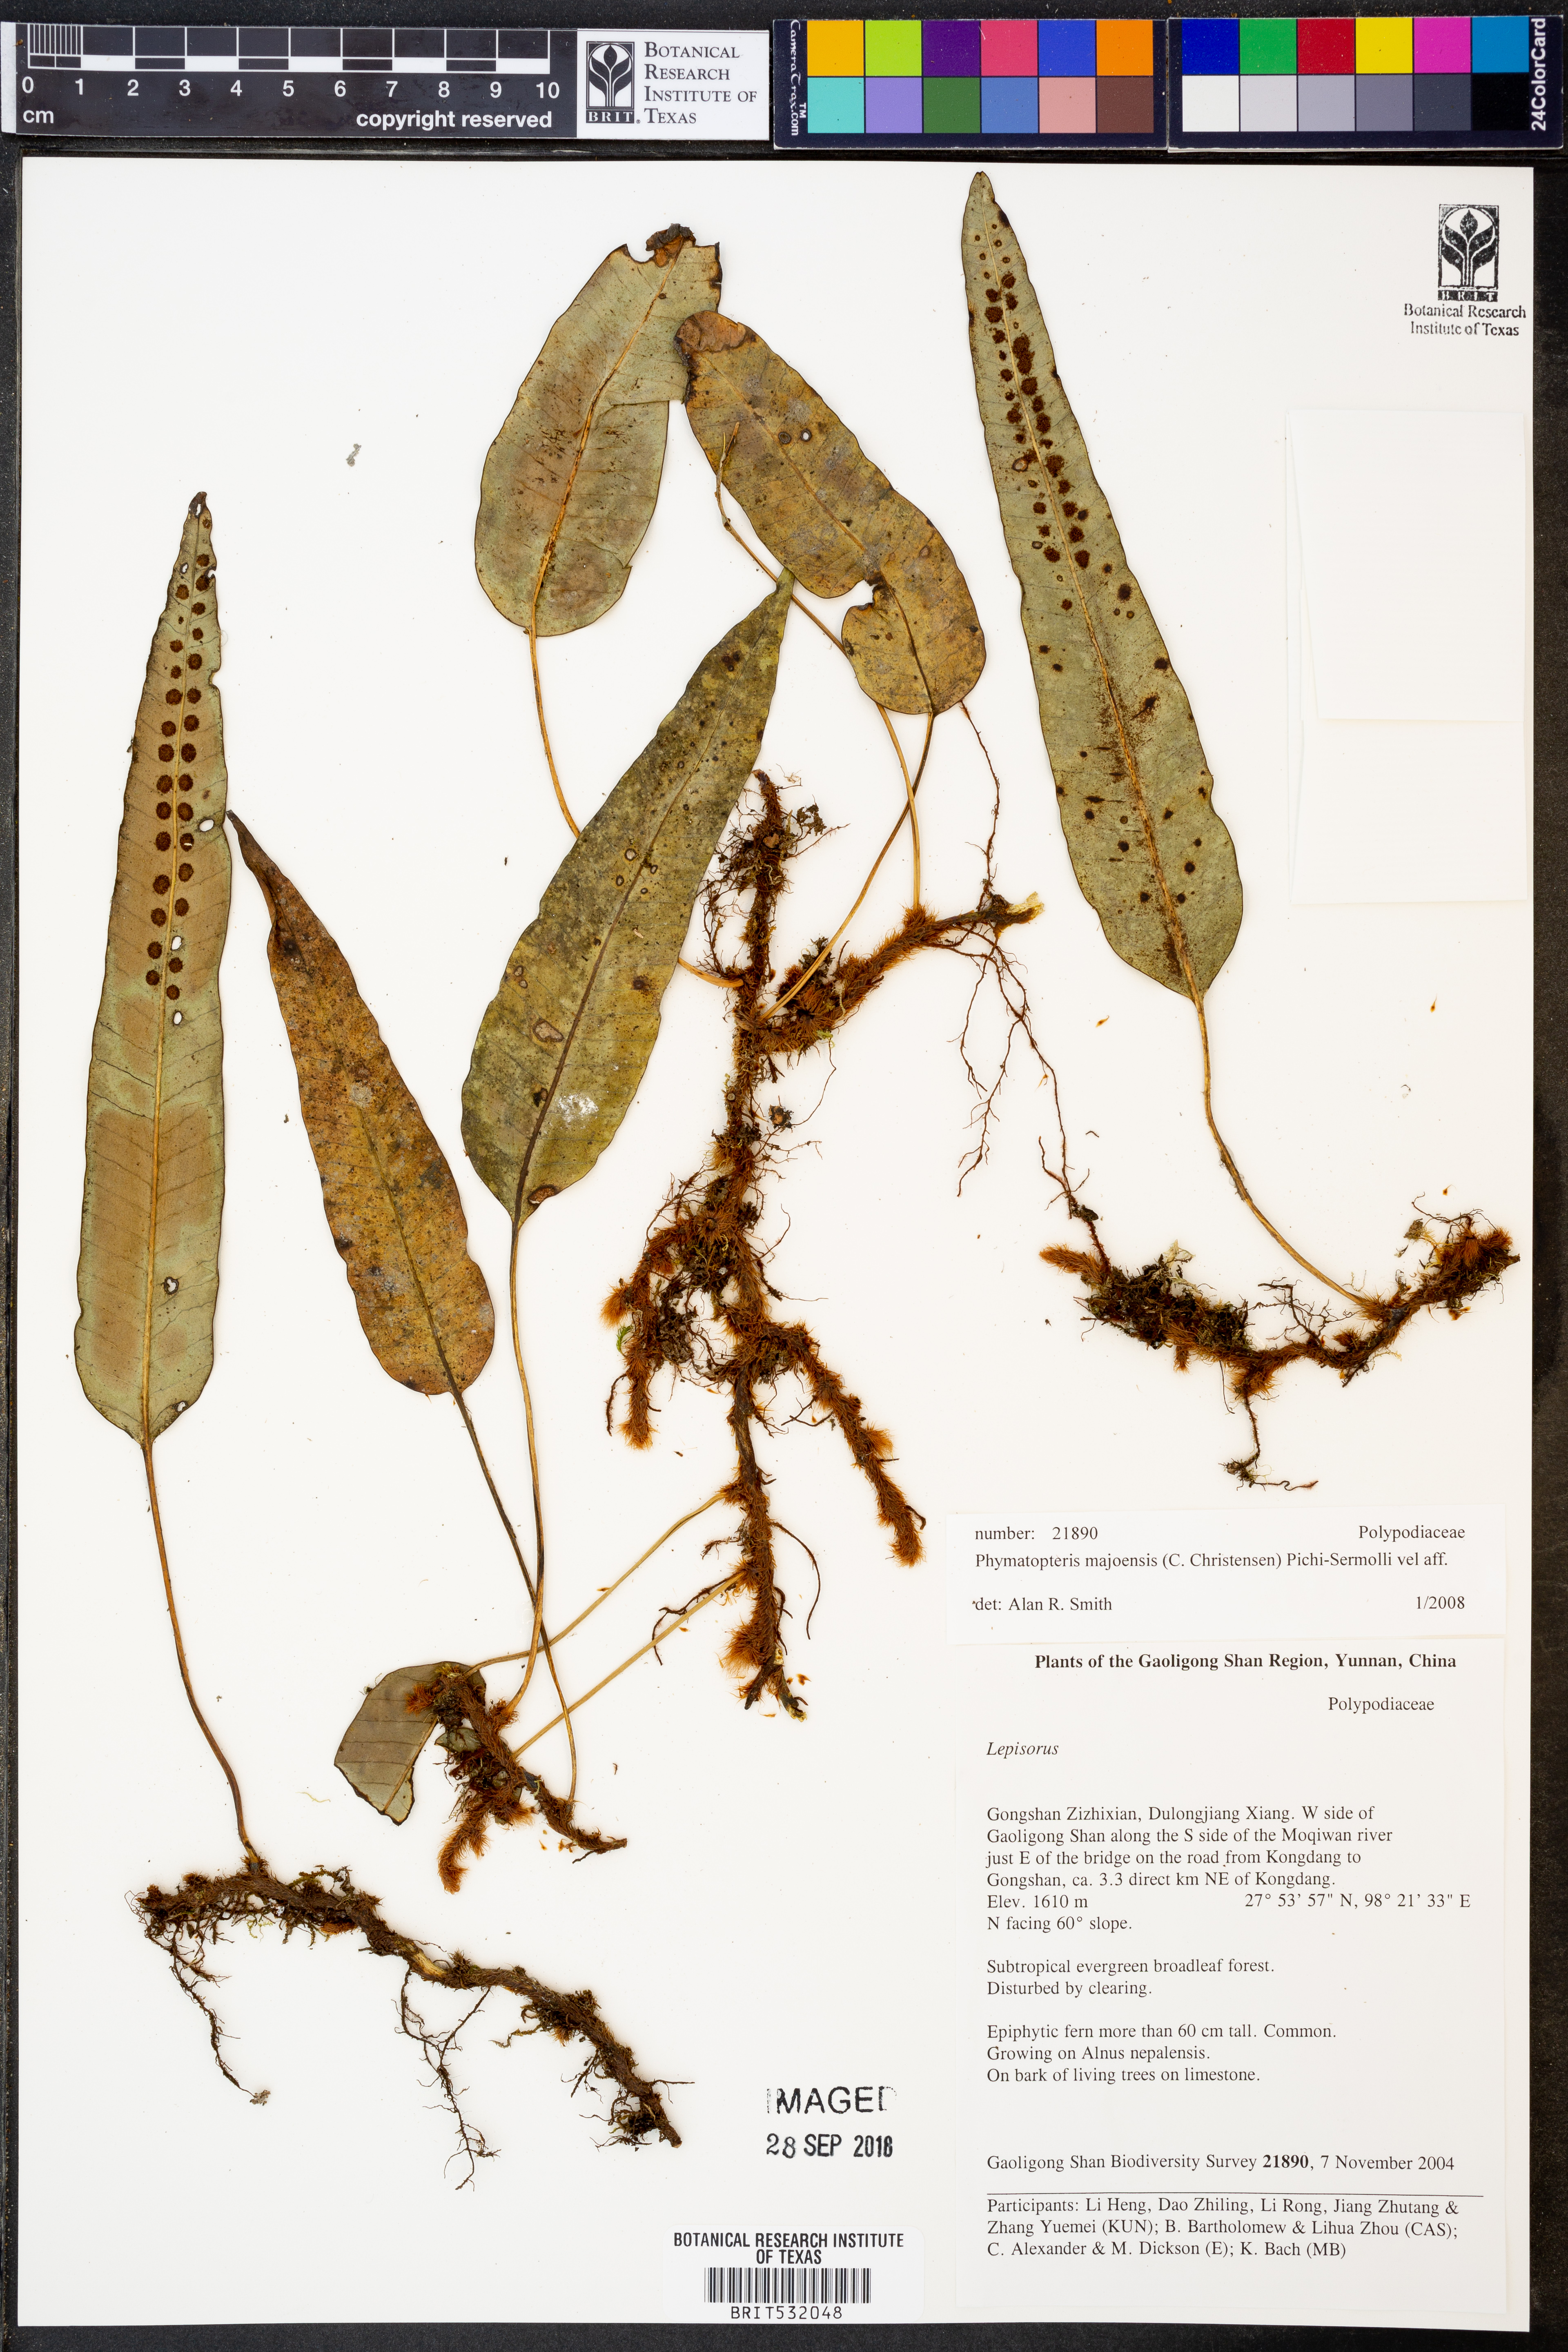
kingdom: Plantae
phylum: Tracheophyta
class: Polypodiopsida
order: Polypodiales
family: Polypodiaceae
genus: Selliguea
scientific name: Selliguea majoensis
